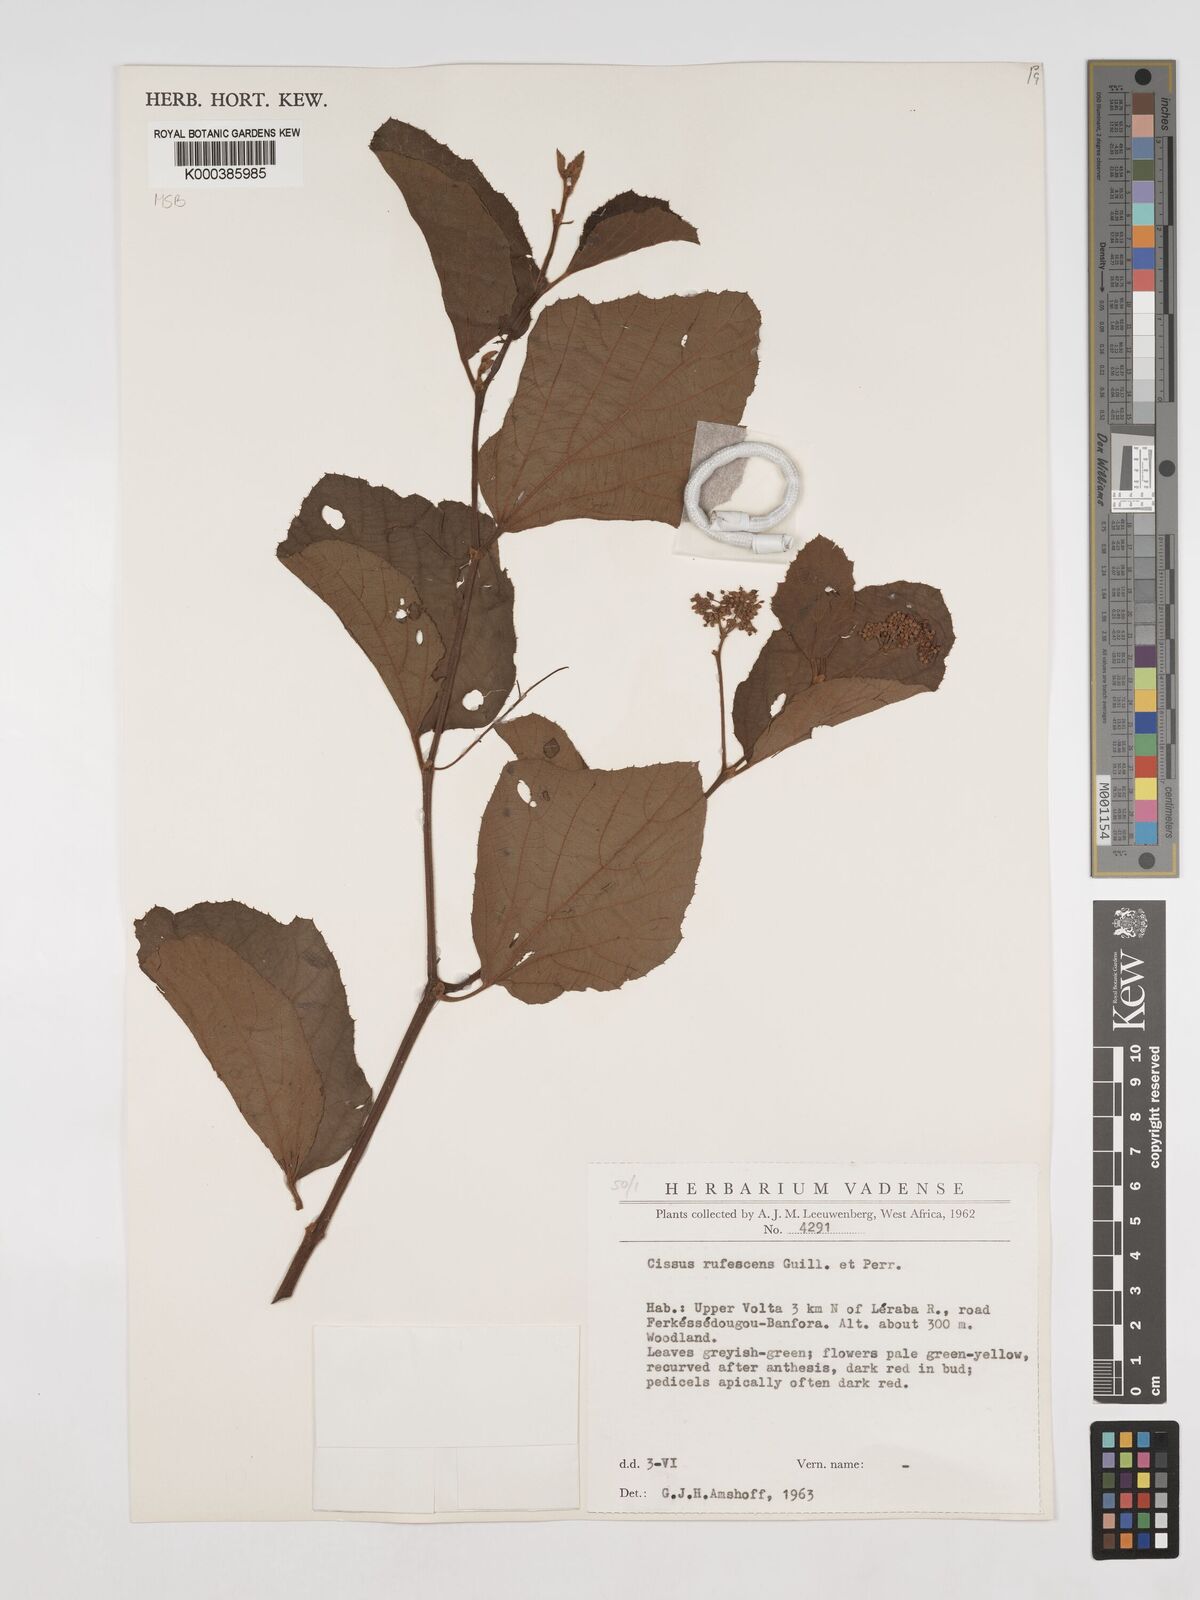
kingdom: Plantae
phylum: Tracheophyta
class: Magnoliopsida
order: Vitales
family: Vitaceae
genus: Cissus
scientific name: Cissus rufescens
